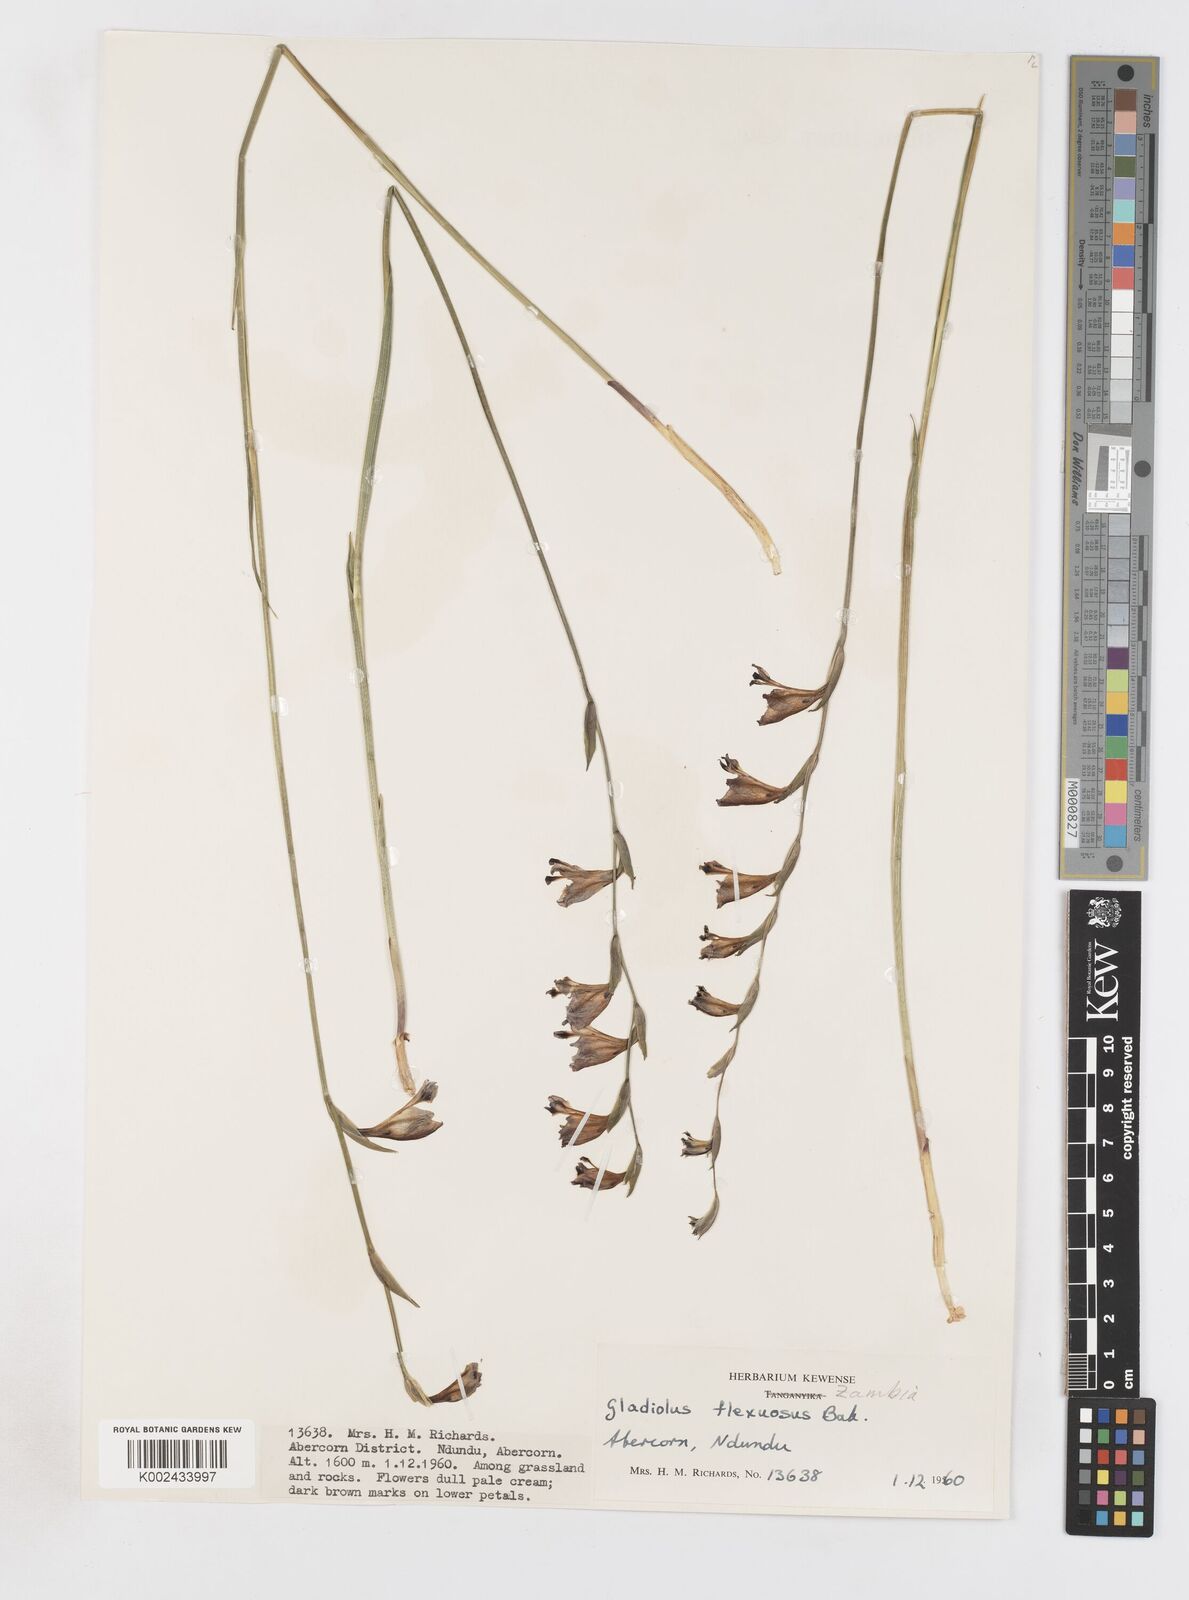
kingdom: Plantae
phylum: Tracheophyta
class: Liliopsida
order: Asparagales
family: Iridaceae
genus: Gladiolus
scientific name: Gladiolus atropurpureus
